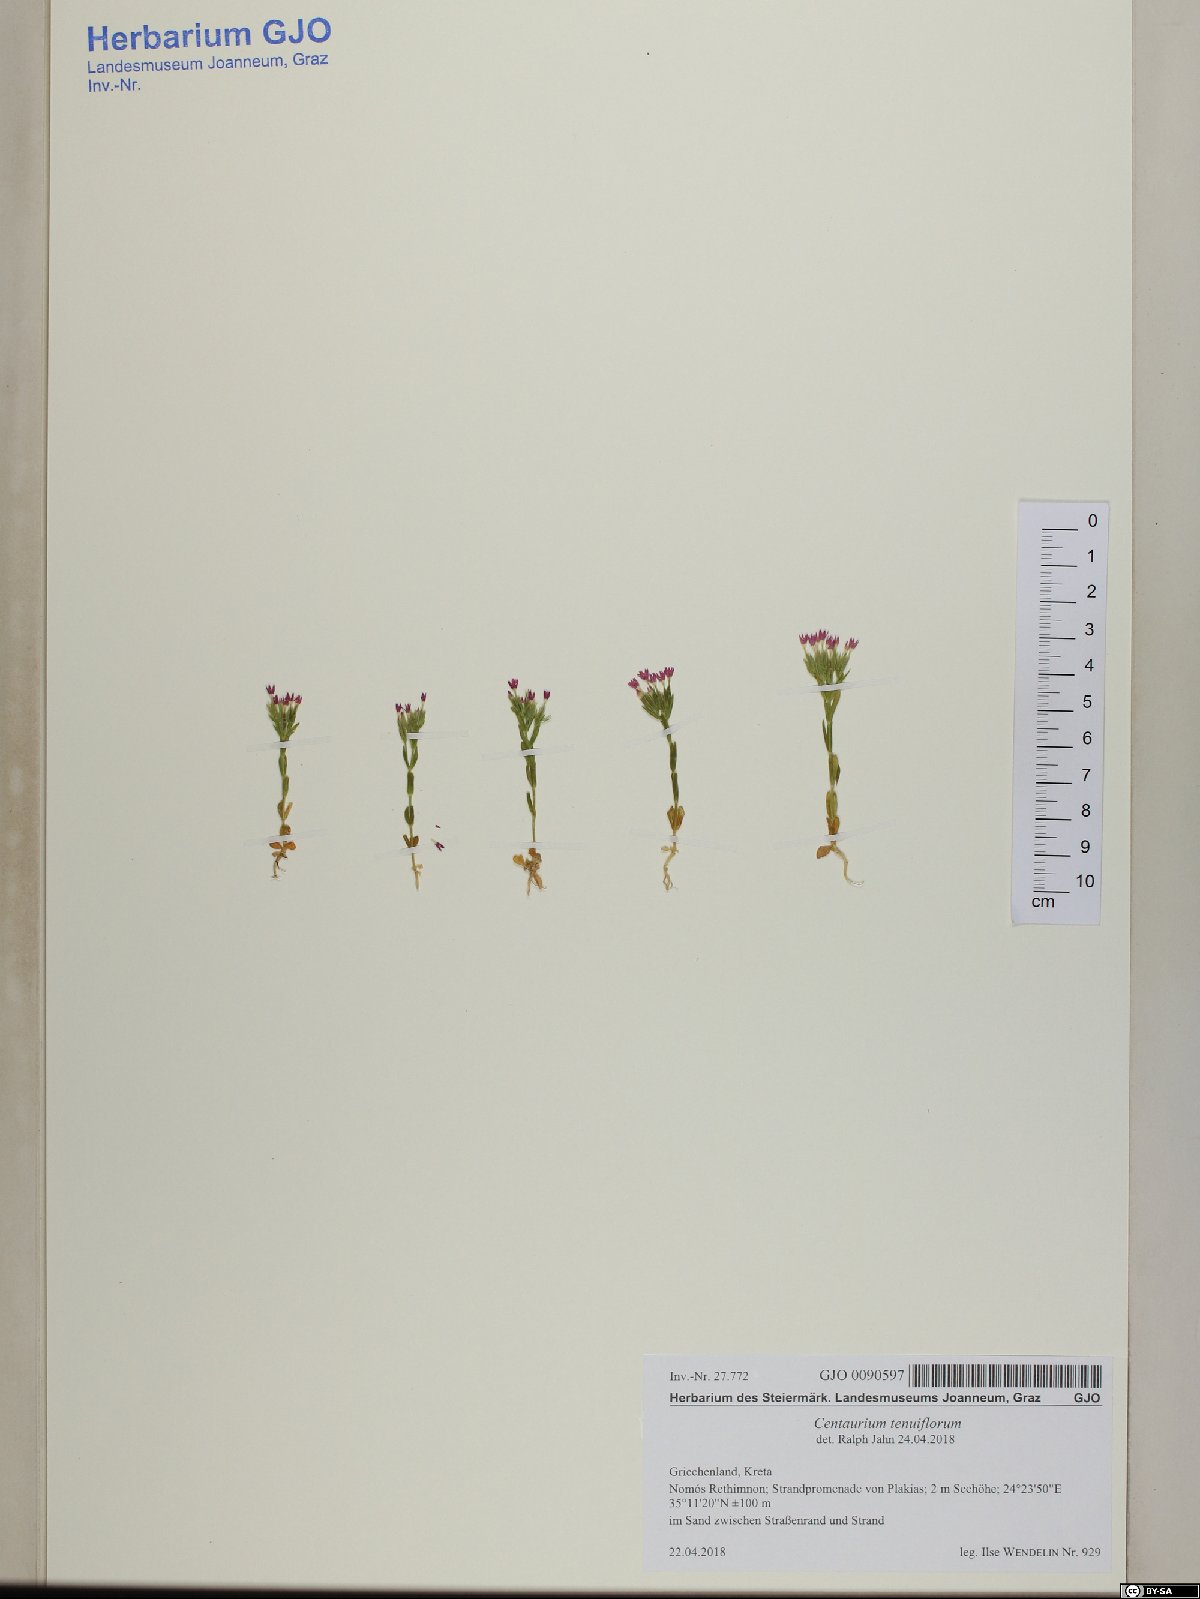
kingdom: Plantae
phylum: Tracheophyta
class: Magnoliopsida
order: Gentianales
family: Gentianaceae
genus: Centaurium
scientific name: Centaurium tenuiflorum
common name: Slender centaury
